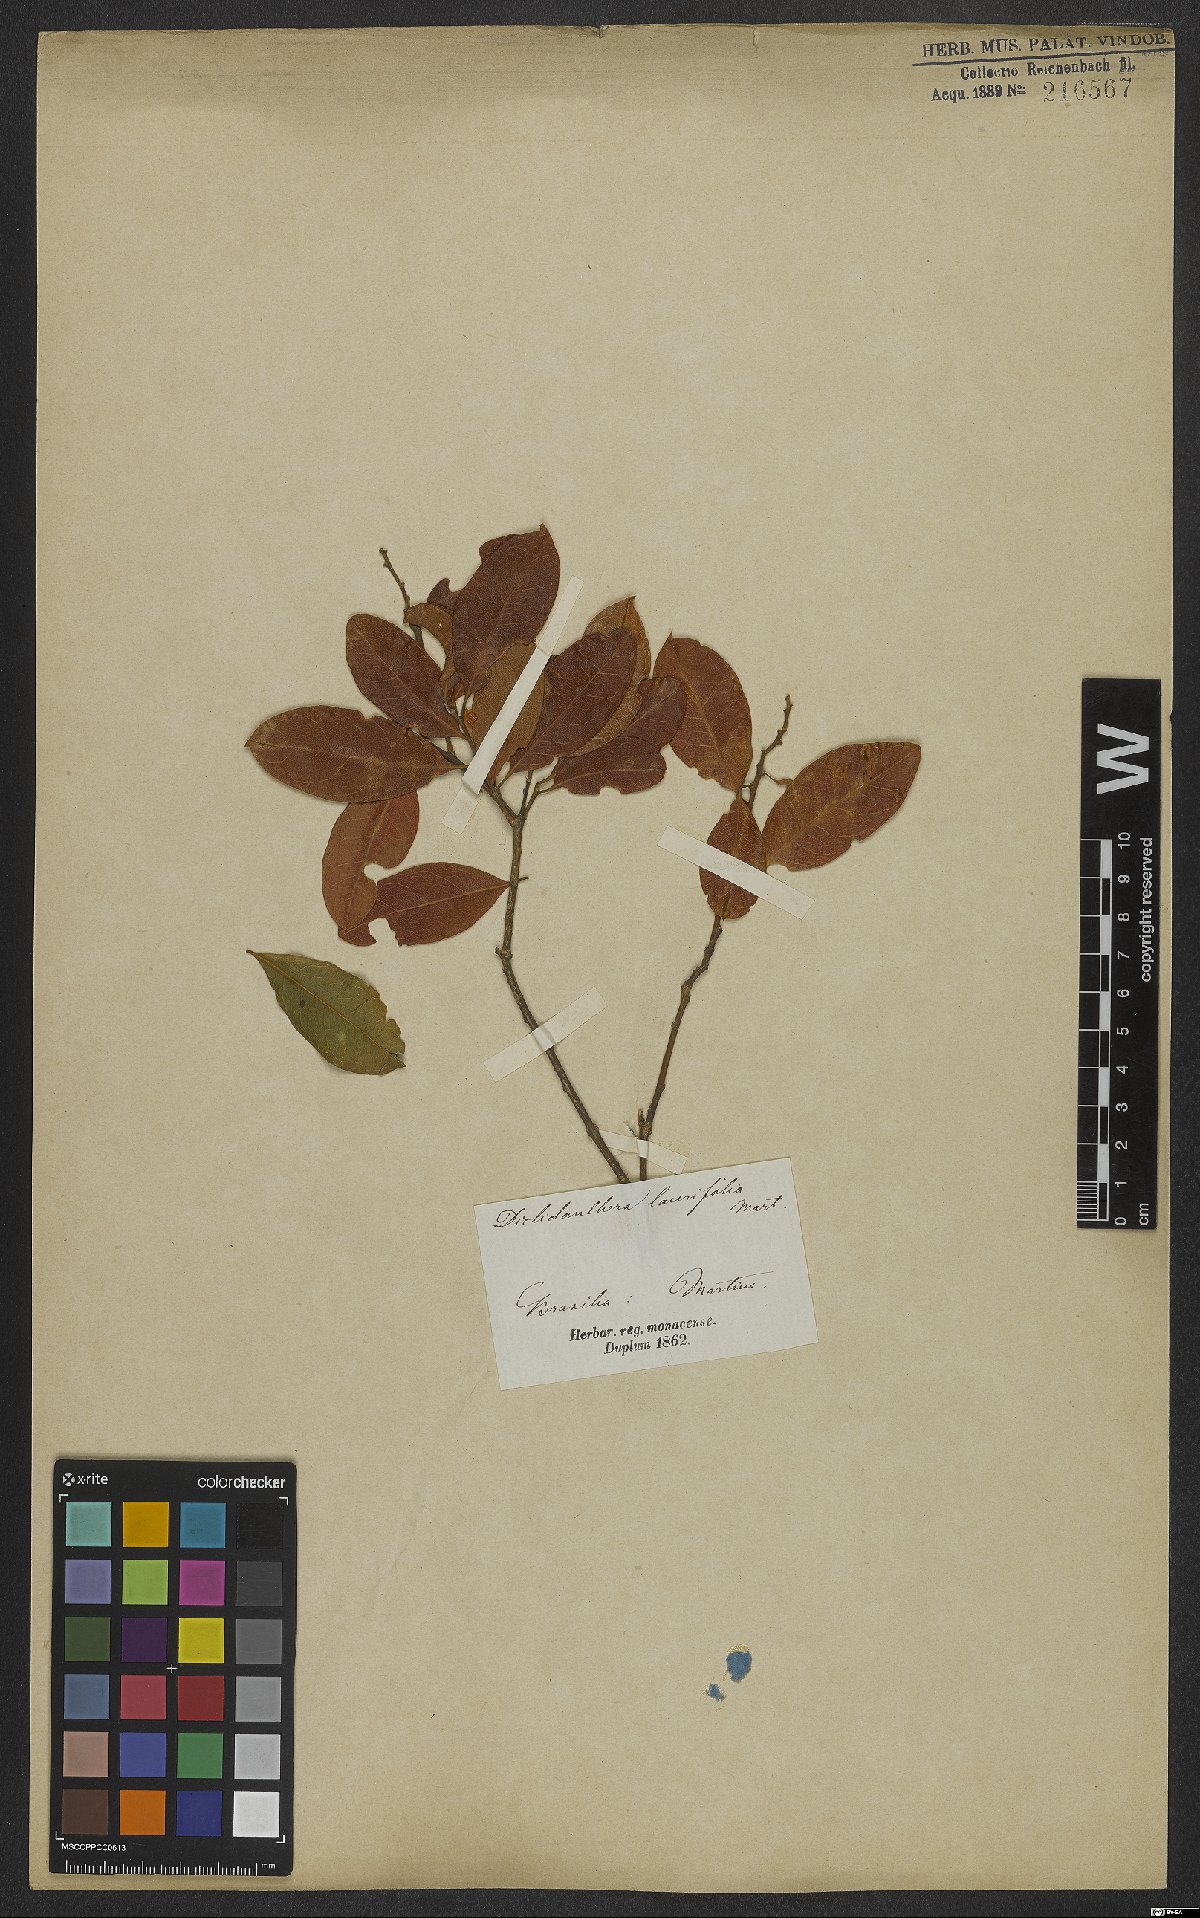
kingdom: Plantae
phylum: Tracheophyta
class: Magnoliopsida
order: Fabales
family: Polygalaceae
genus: Diclidanthera
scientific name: Diclidanthera laurifolia
